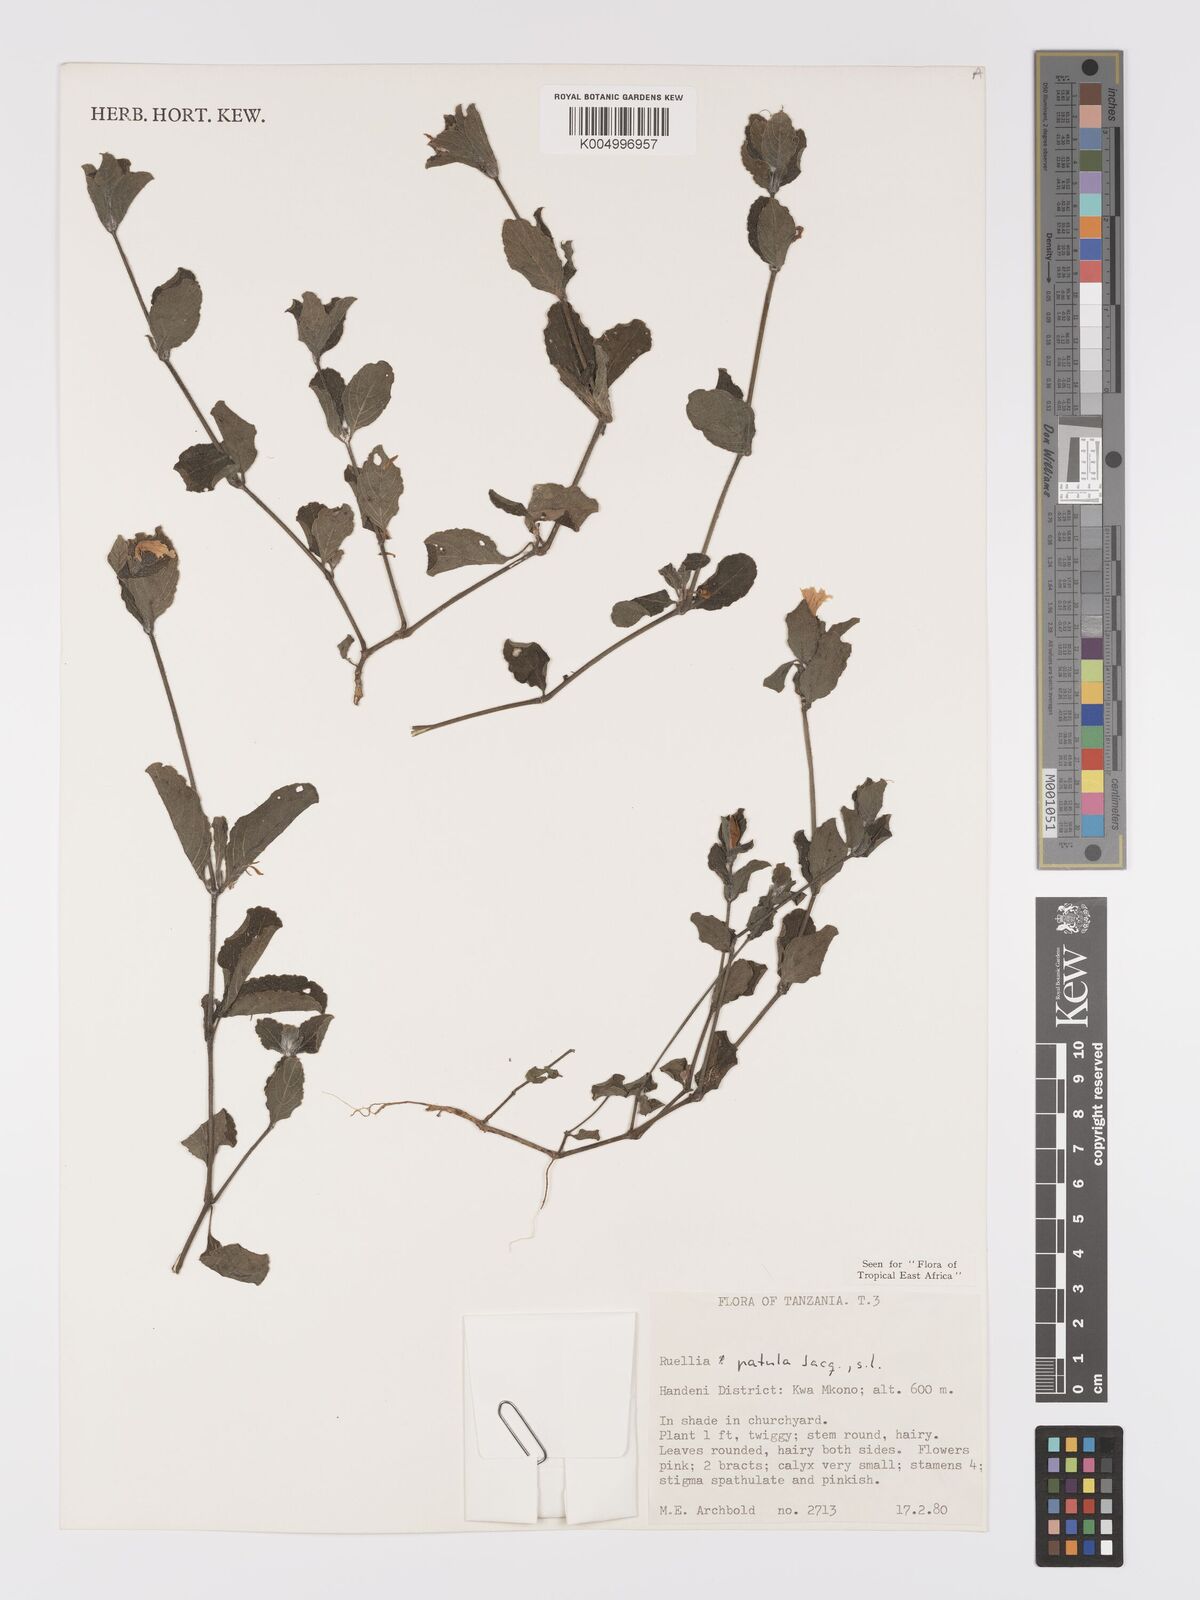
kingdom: Plantae
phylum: Tracheophyta
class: Magnoliopsida
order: Lamiales
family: Acanthaceae
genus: Ruellia
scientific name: Ruellia patula
